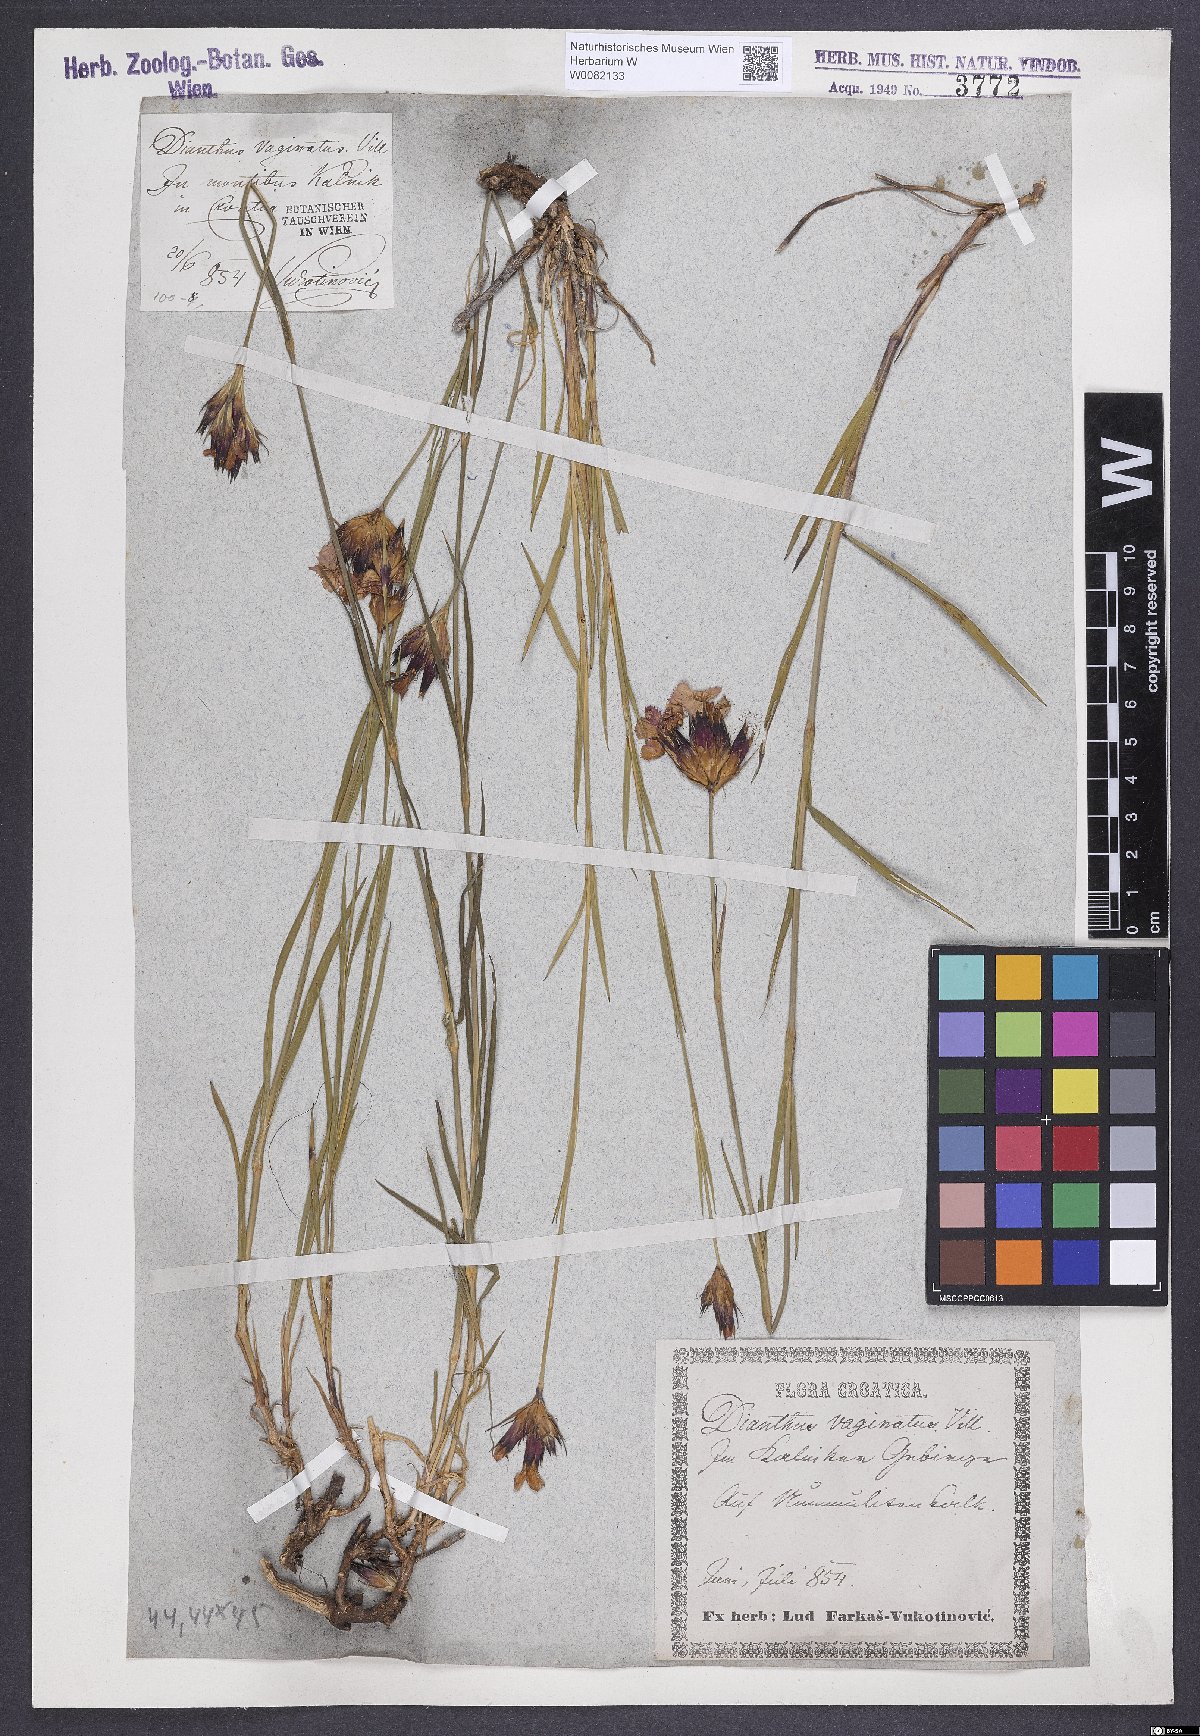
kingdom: Plantae
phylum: Tracheophyta
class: Magnoliopsida
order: Caryophyllales
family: Caryophyllaceae
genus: Dianthus
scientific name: Dianthus carthusianorum
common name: Carthusian pink
